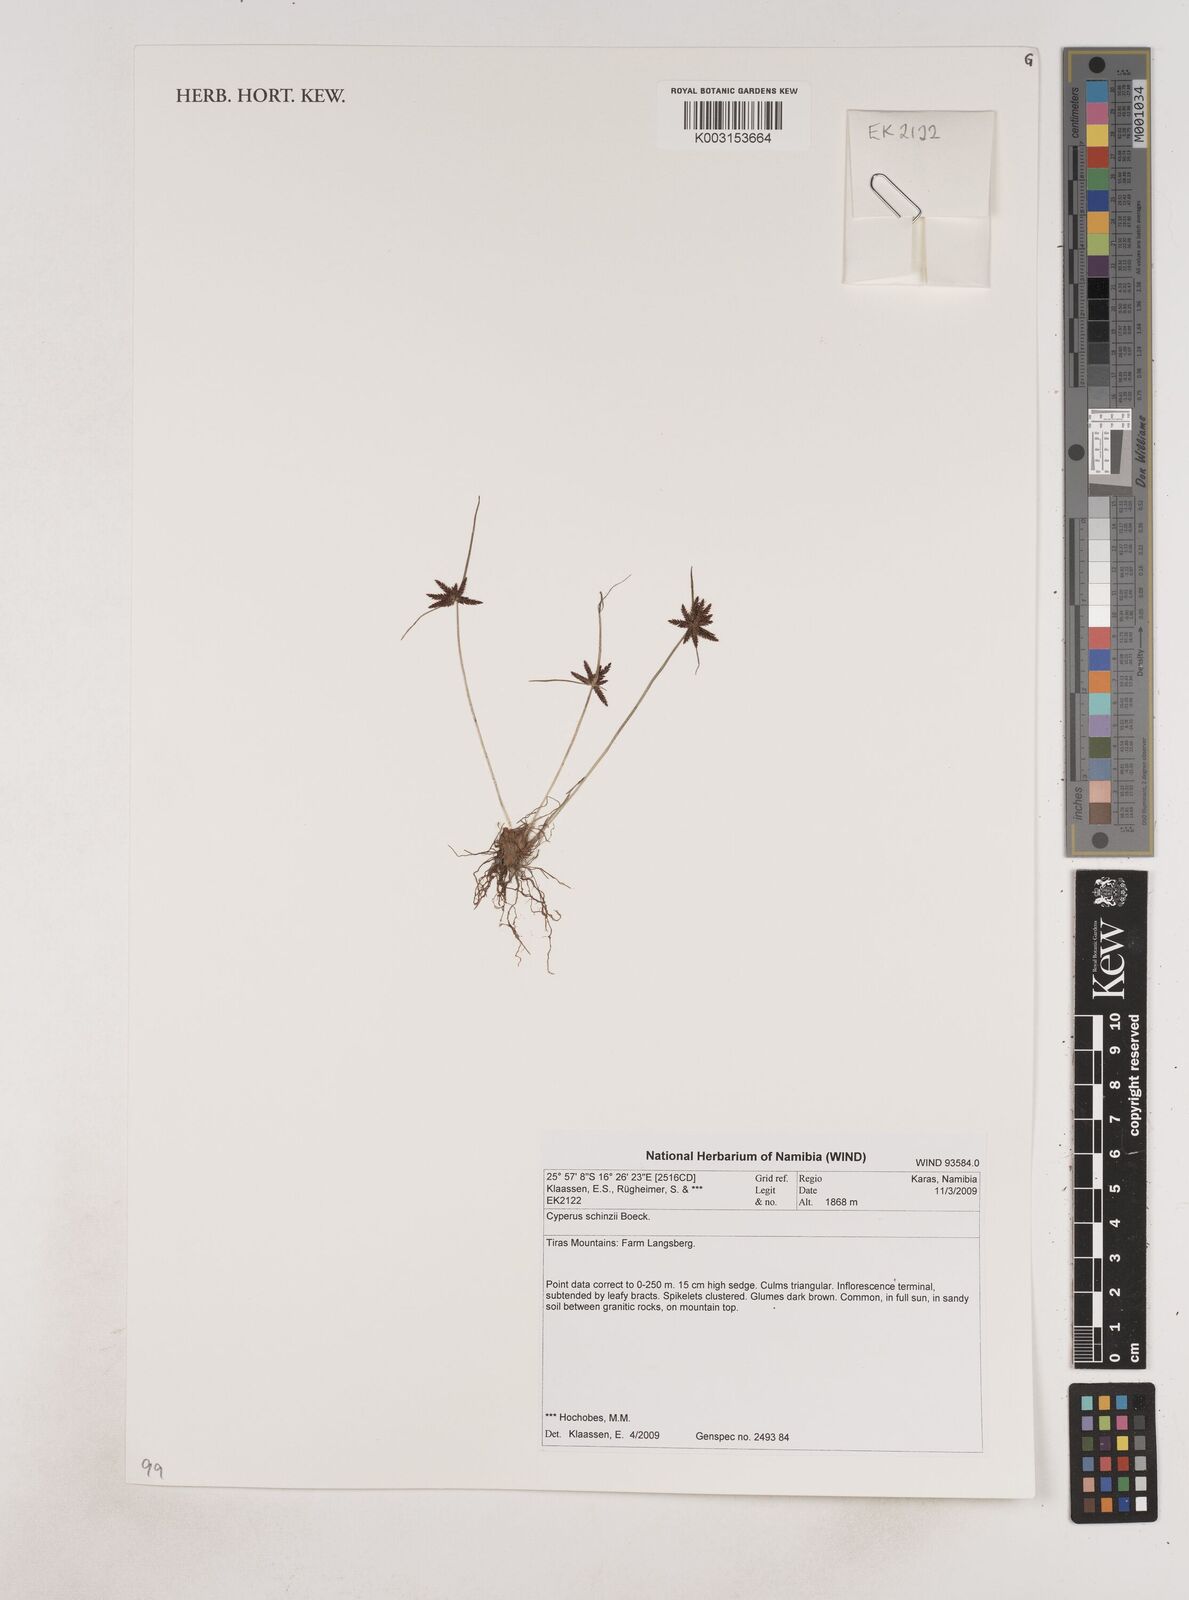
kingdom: Plantae
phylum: Tracheophyta
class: Liliopsida
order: Poales
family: Cyperaceae
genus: Cyperus
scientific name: Cyperus semitrifidus
